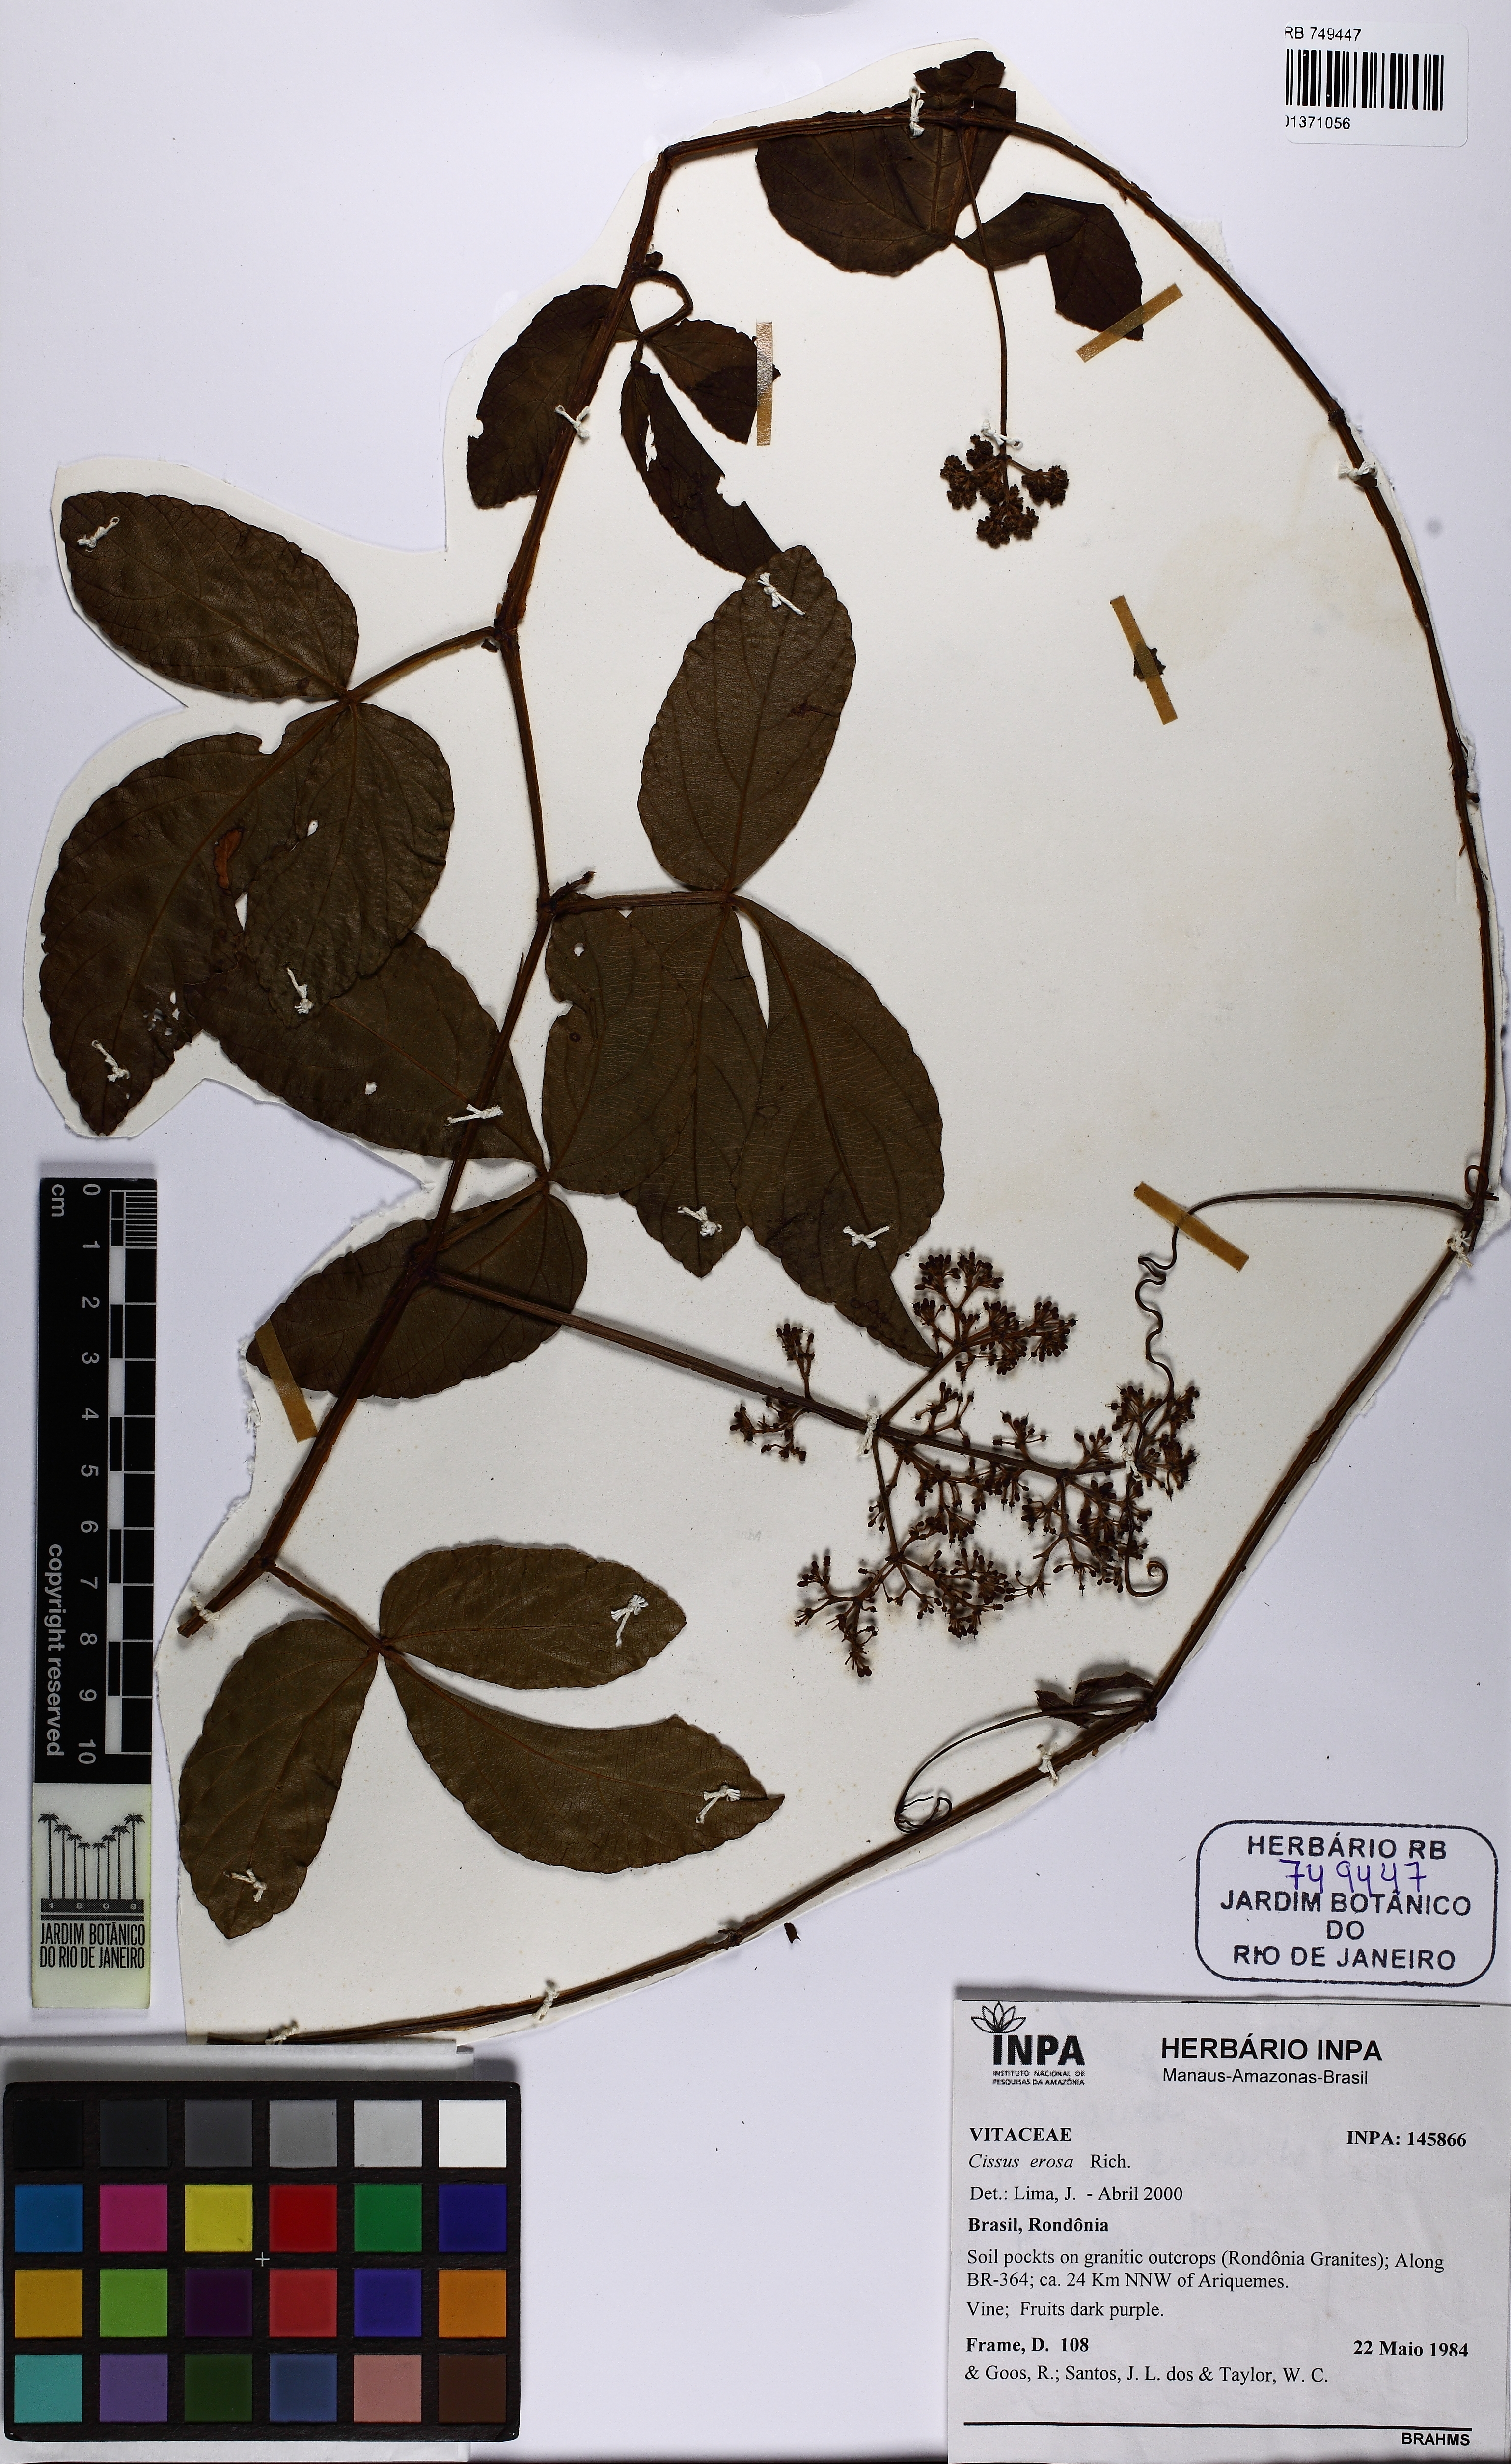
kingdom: Plantae
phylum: Tracheophyta
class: Magnoliopsida
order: Vitales
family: Vitaceae
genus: Cissus
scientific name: Cissus erosa
